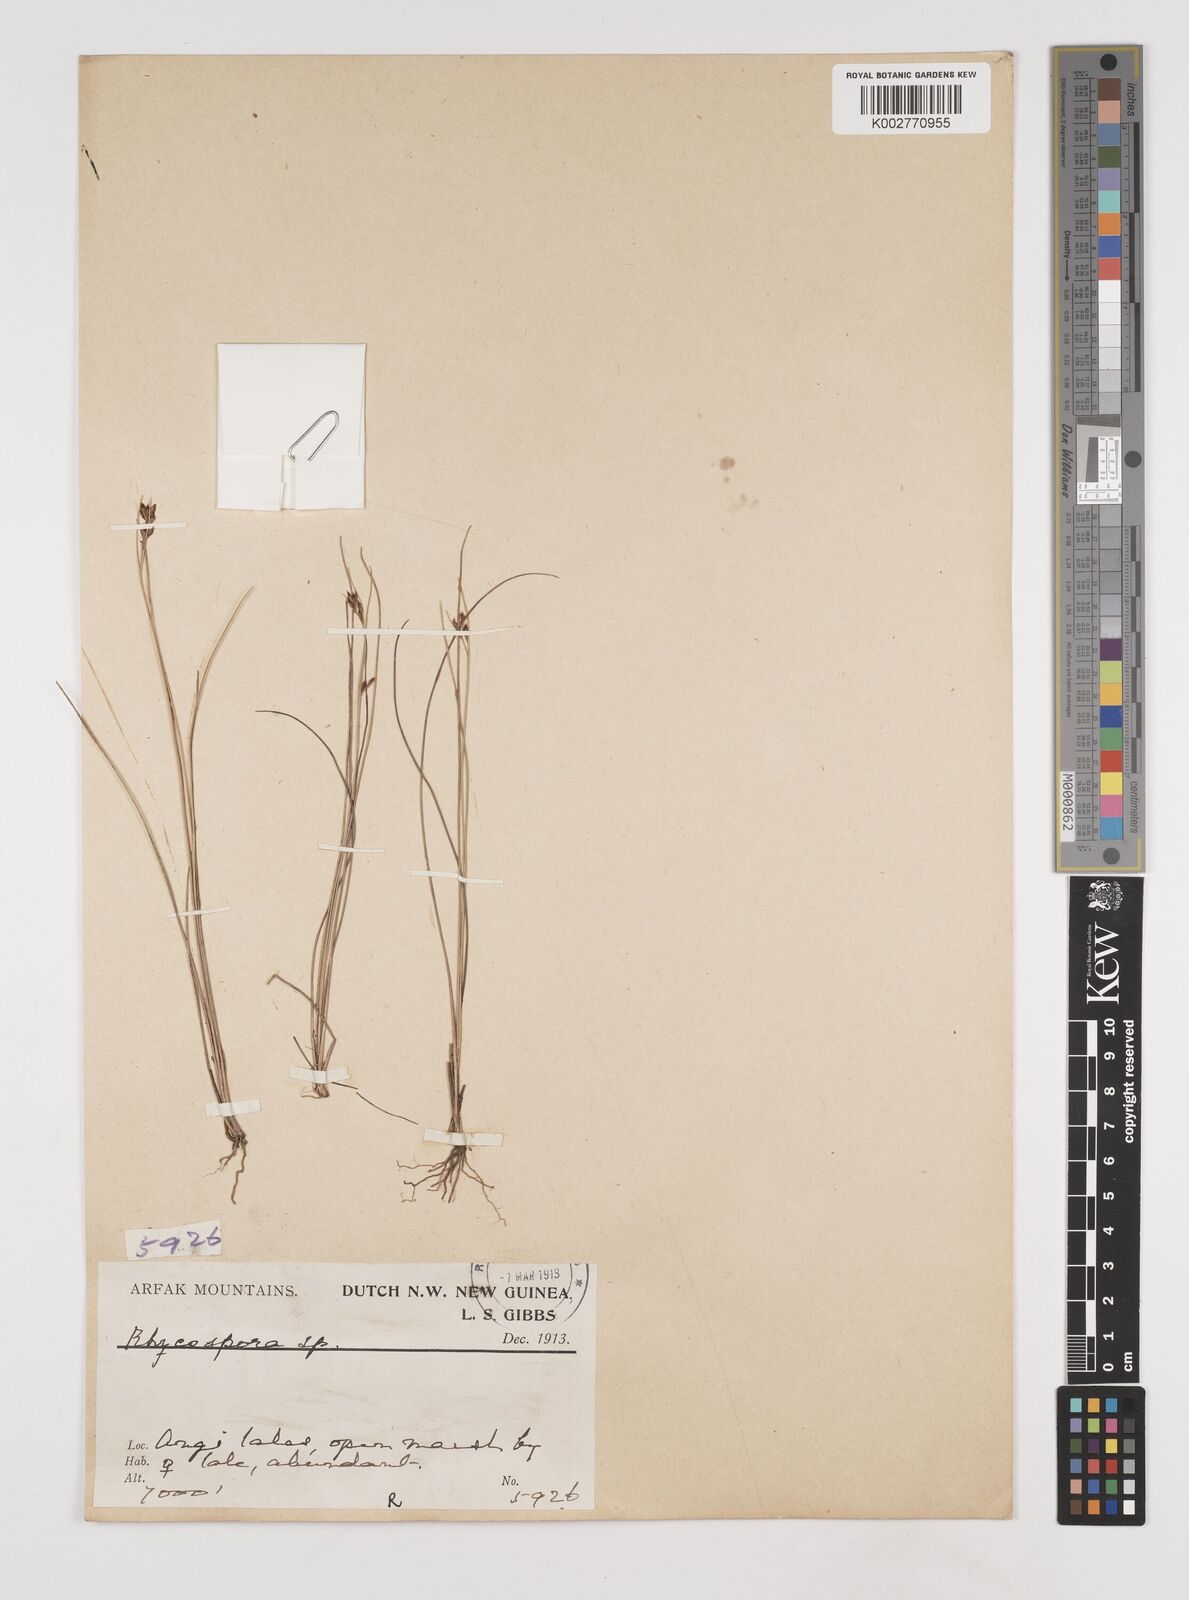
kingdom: Plantae
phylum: Tracheophyta
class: Liliopsida
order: Poales
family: Cyperaceae
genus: Rhynchospora
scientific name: Rhynchospora
